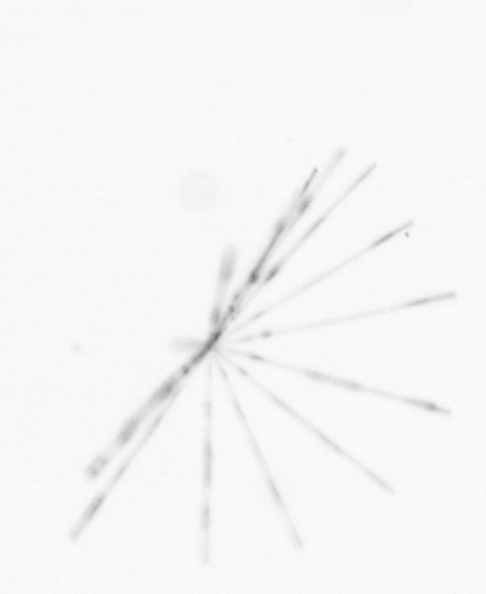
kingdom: Chromista
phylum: Ochrophyta
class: Bacillariophyceae
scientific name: Bacillariophyceae
